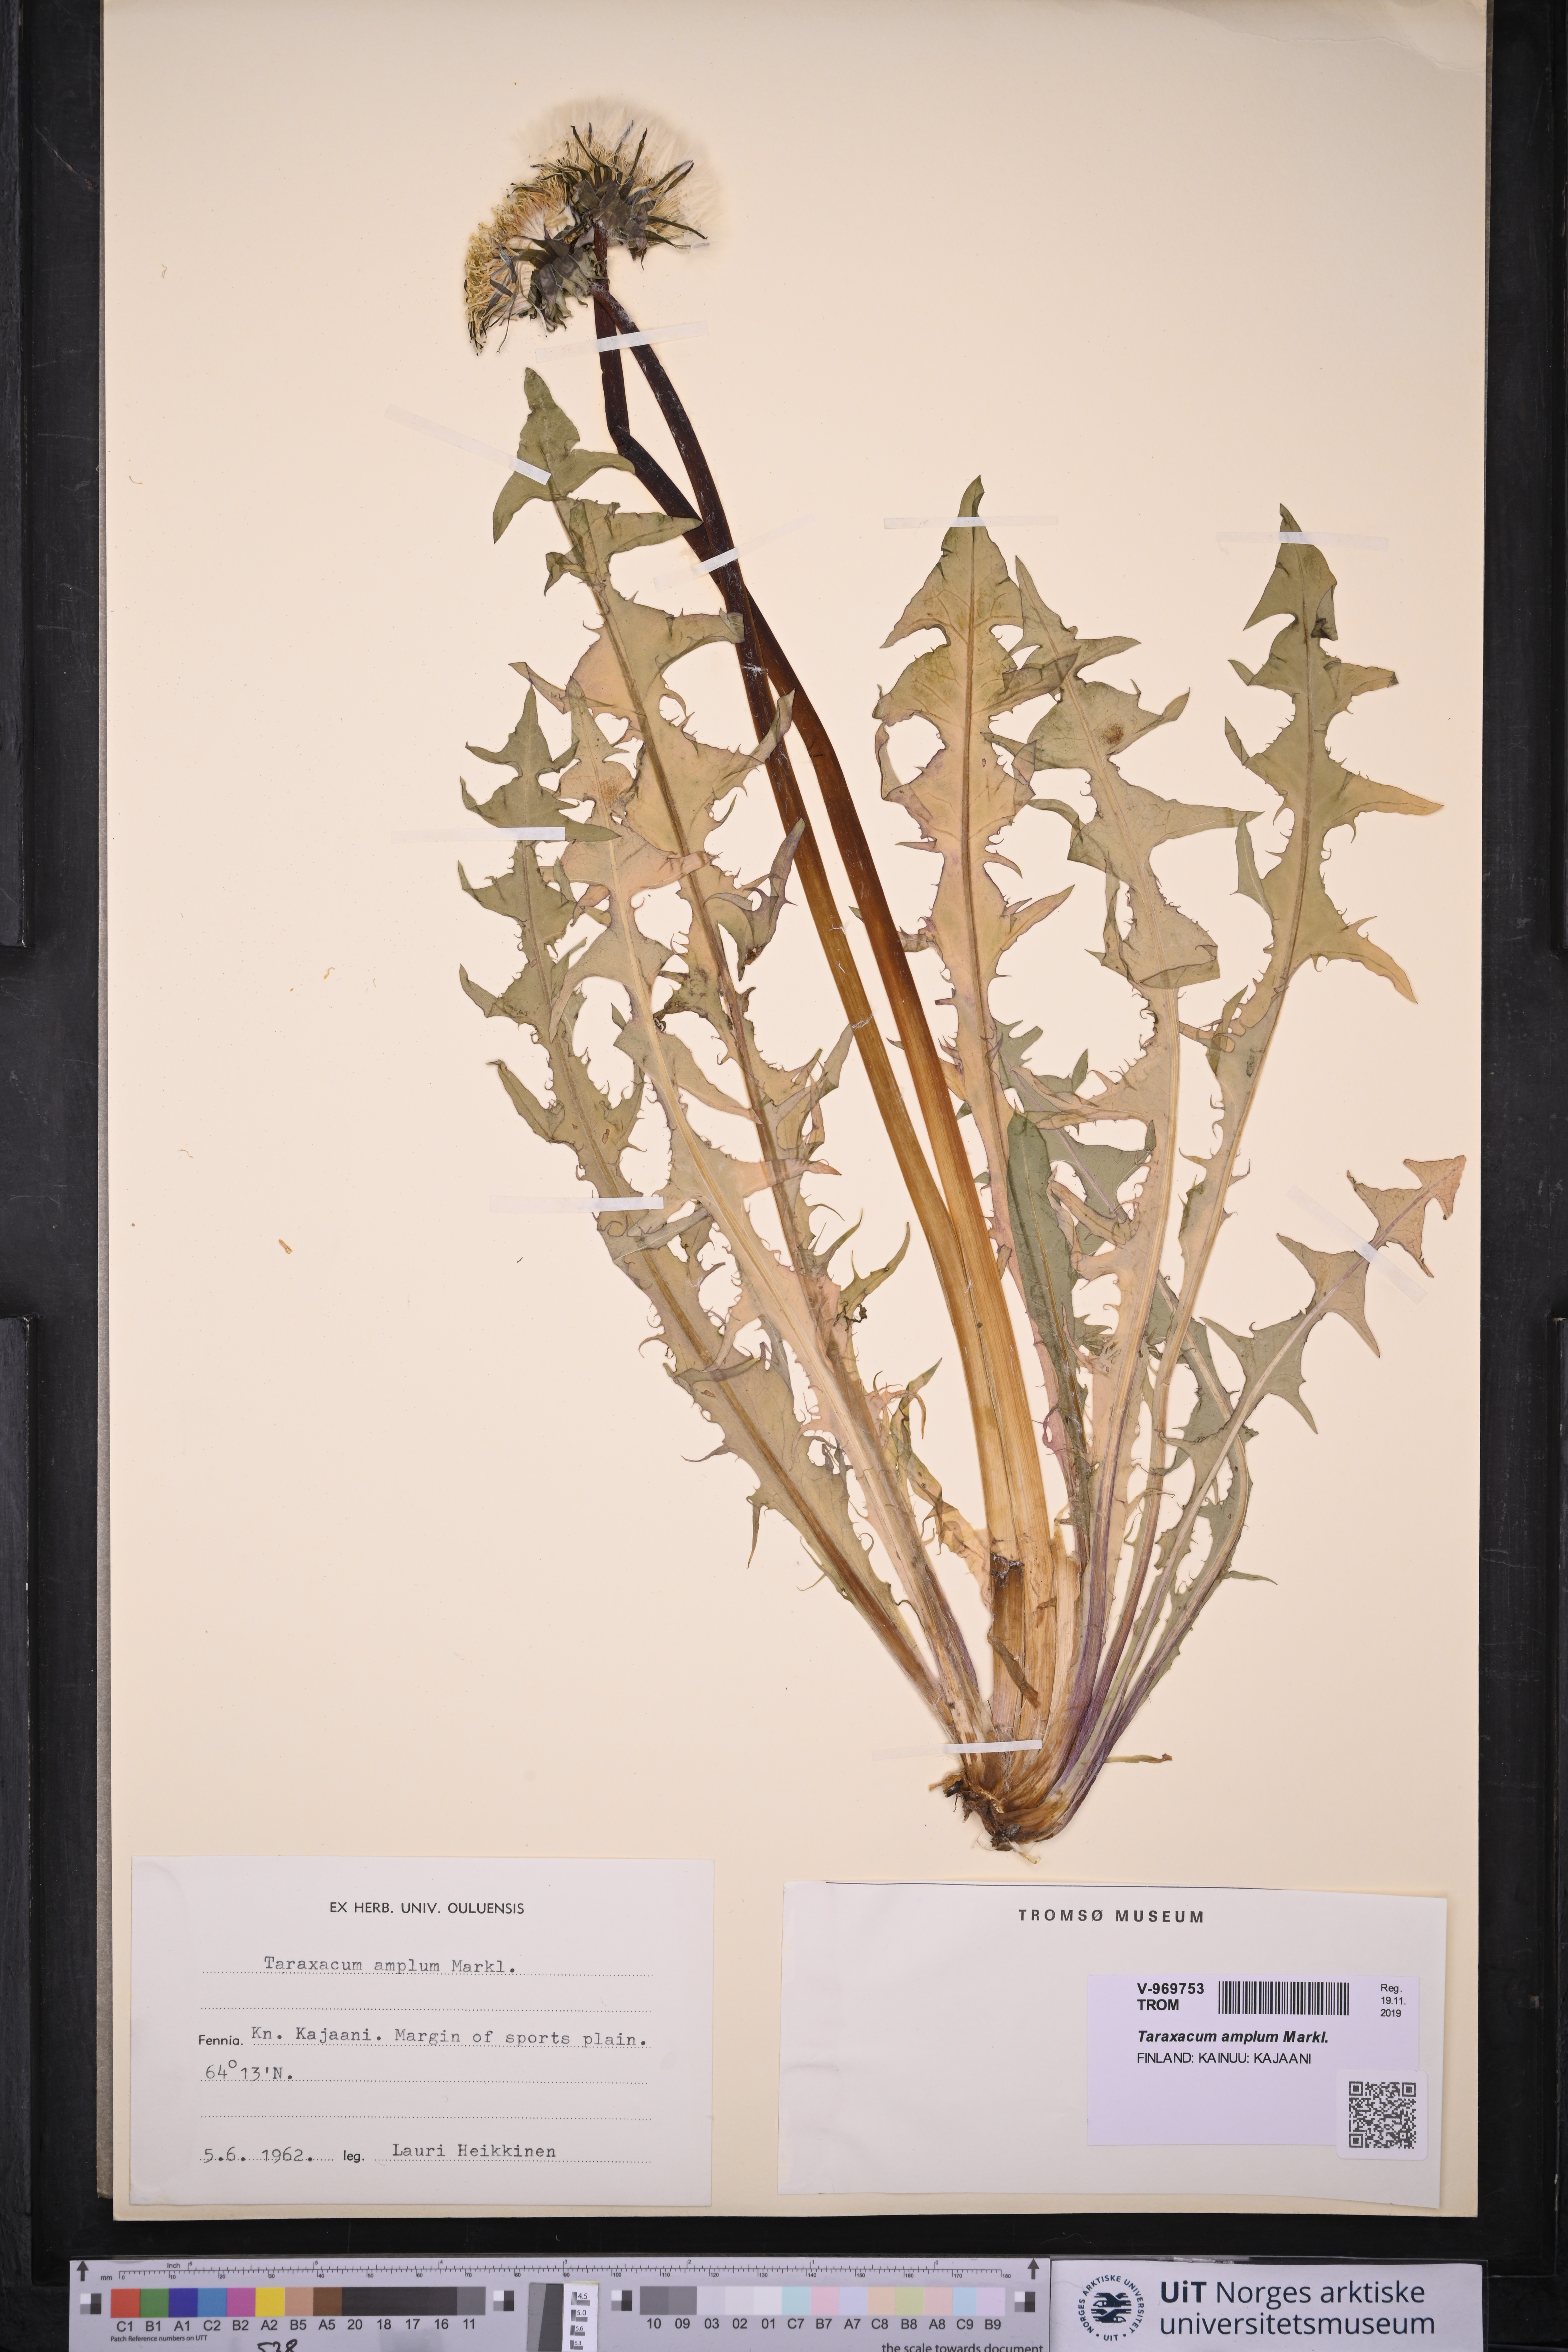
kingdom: Plantae
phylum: Tracheophyta
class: Magnoliopsida
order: Asterales
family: Asteraceae
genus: Taraxacum
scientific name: Taraxacum amplum
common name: Toothed dandelion
